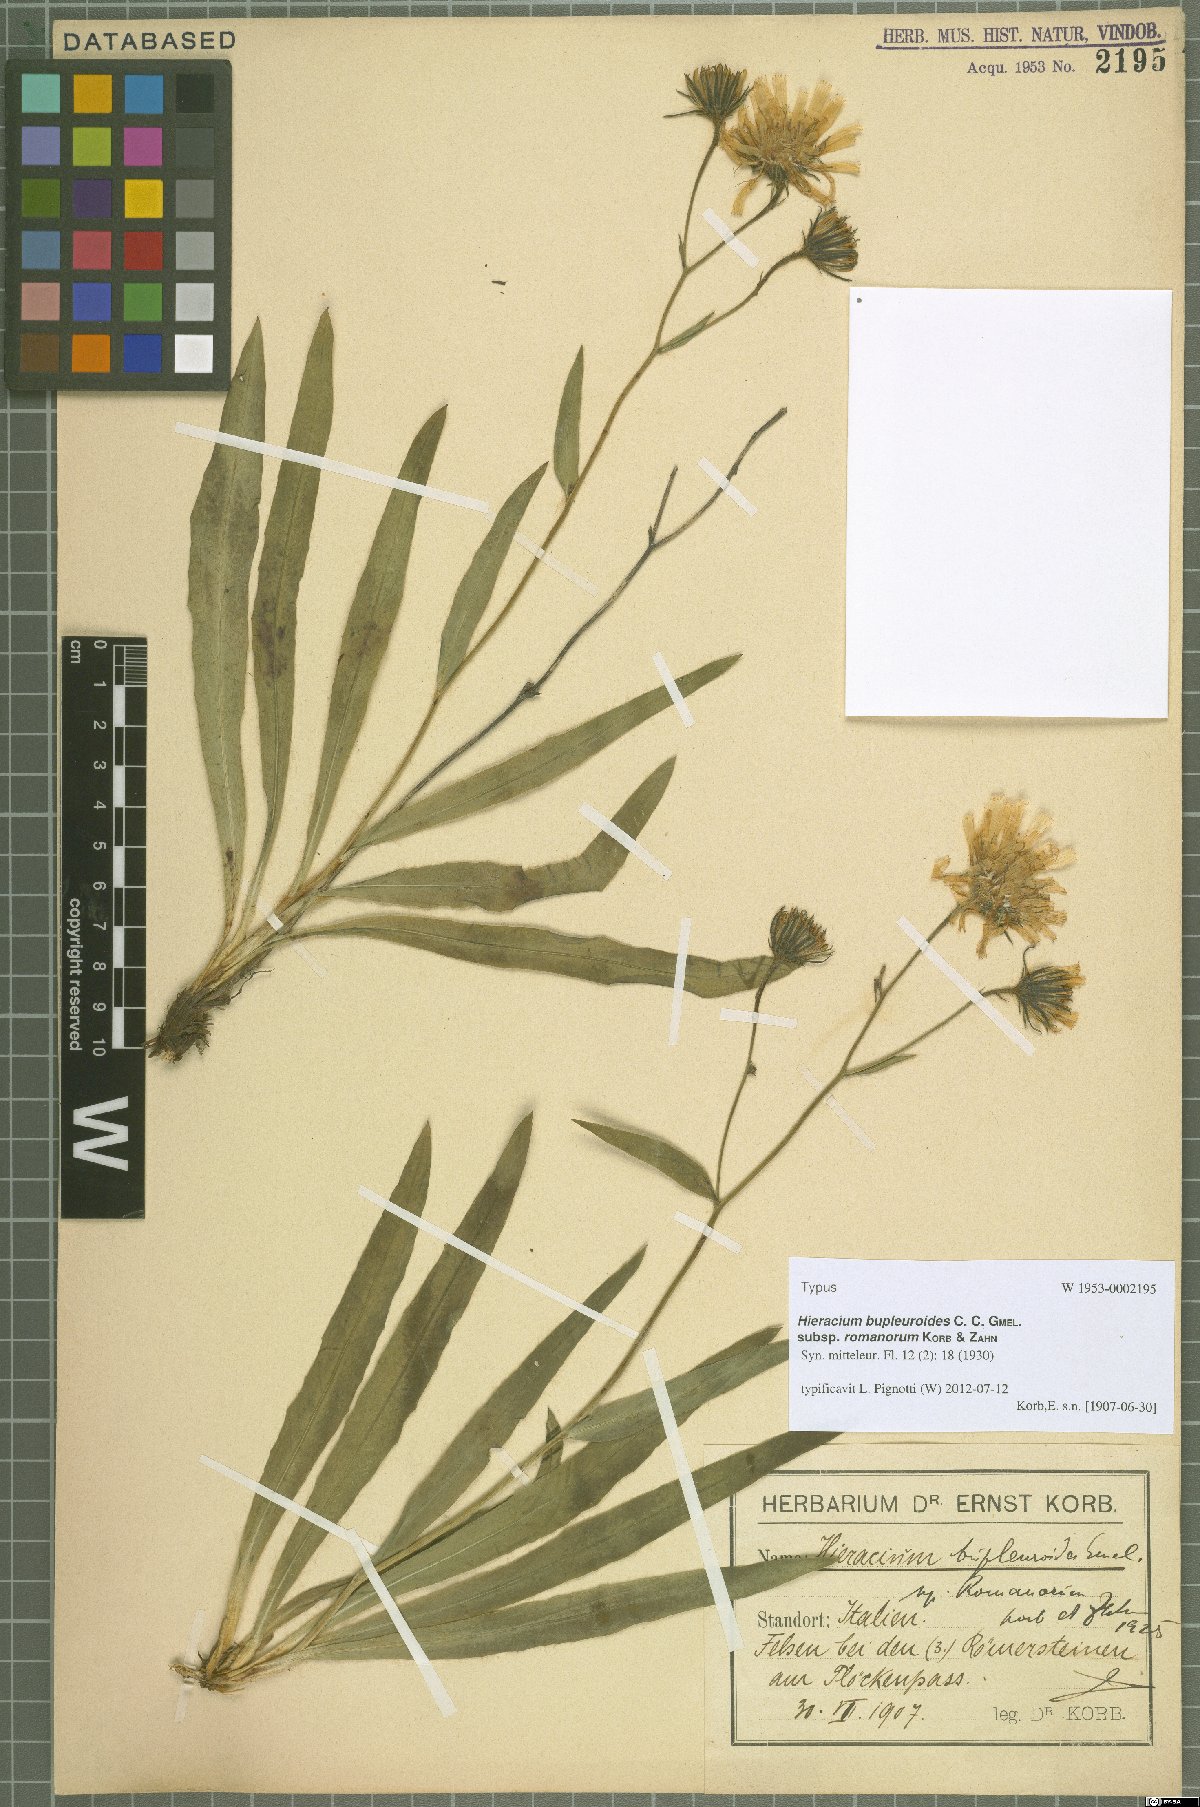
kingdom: Plantae
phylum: Tracheophyta
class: Magnoliopsida
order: Asterales
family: Asteraceae
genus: Hieracium
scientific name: Hieracium bupleuroides
